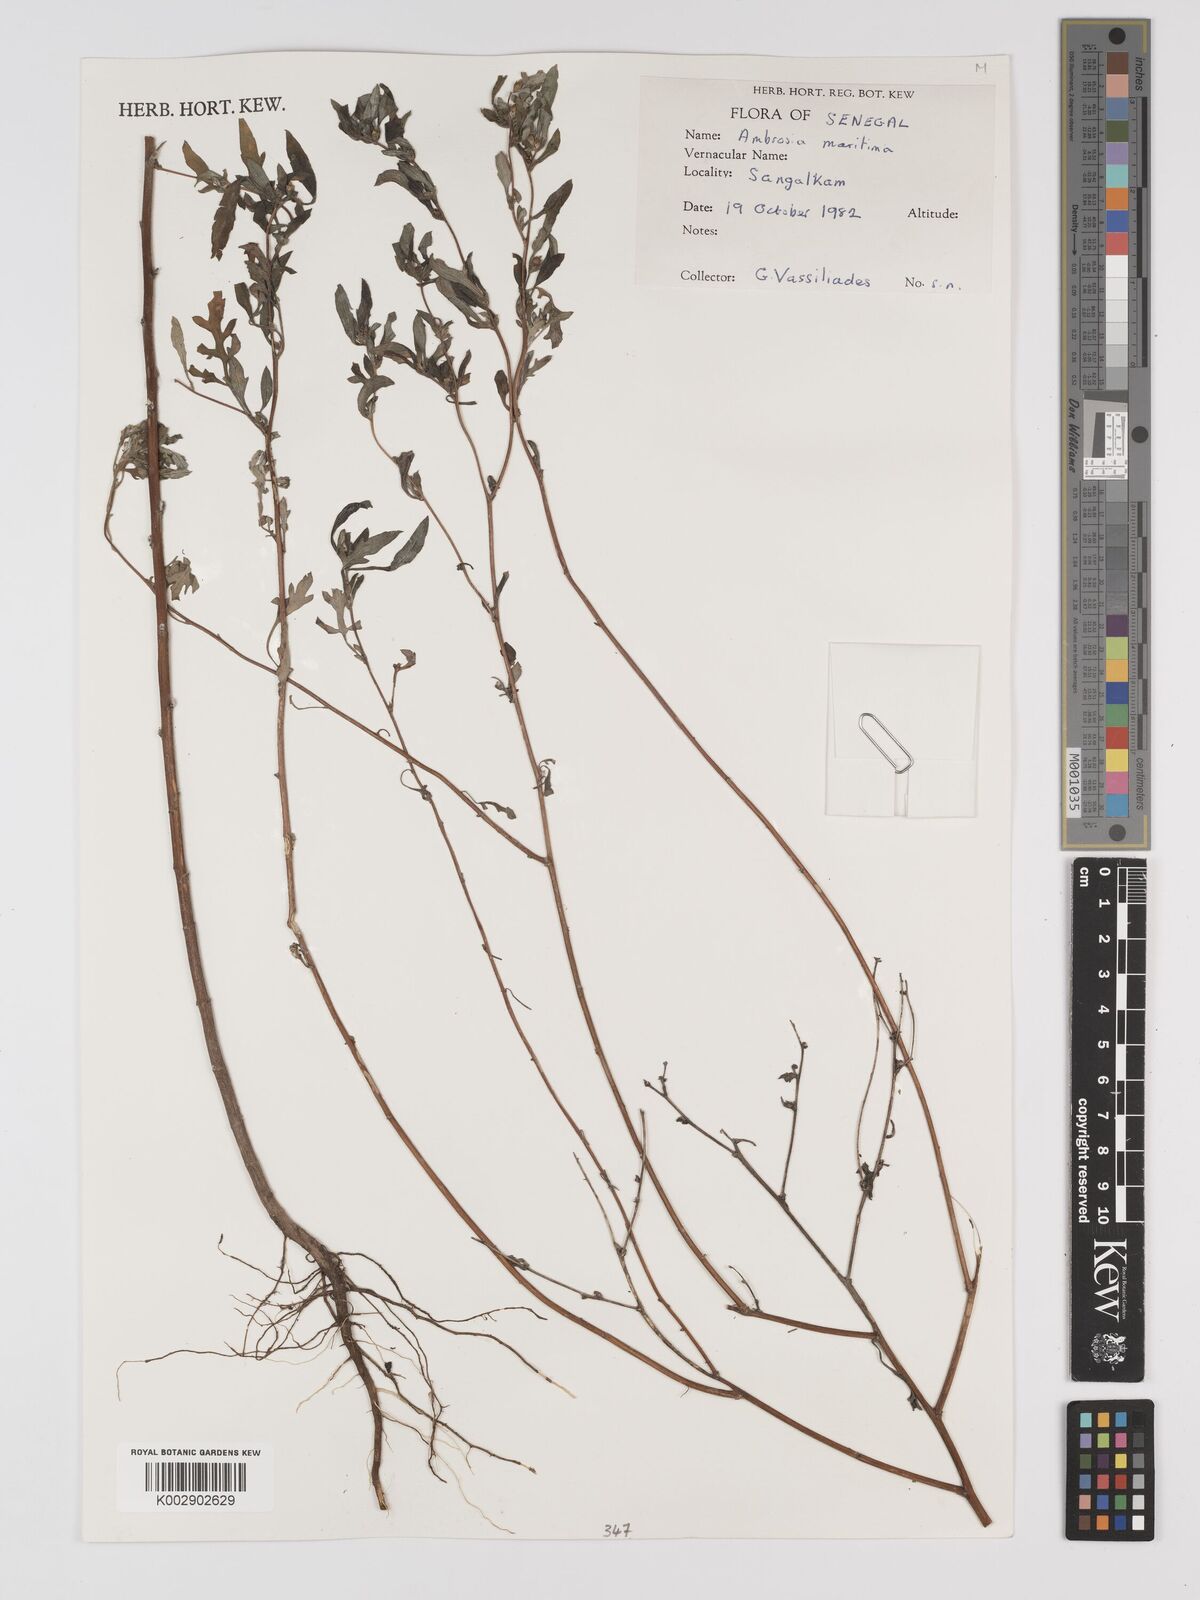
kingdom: Plantae
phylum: Tracheophyta
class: Magnoliopsida
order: Asterales
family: Asteraceae
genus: Ambrosia
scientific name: Ambrosia maritima
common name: Sea ambrosia
